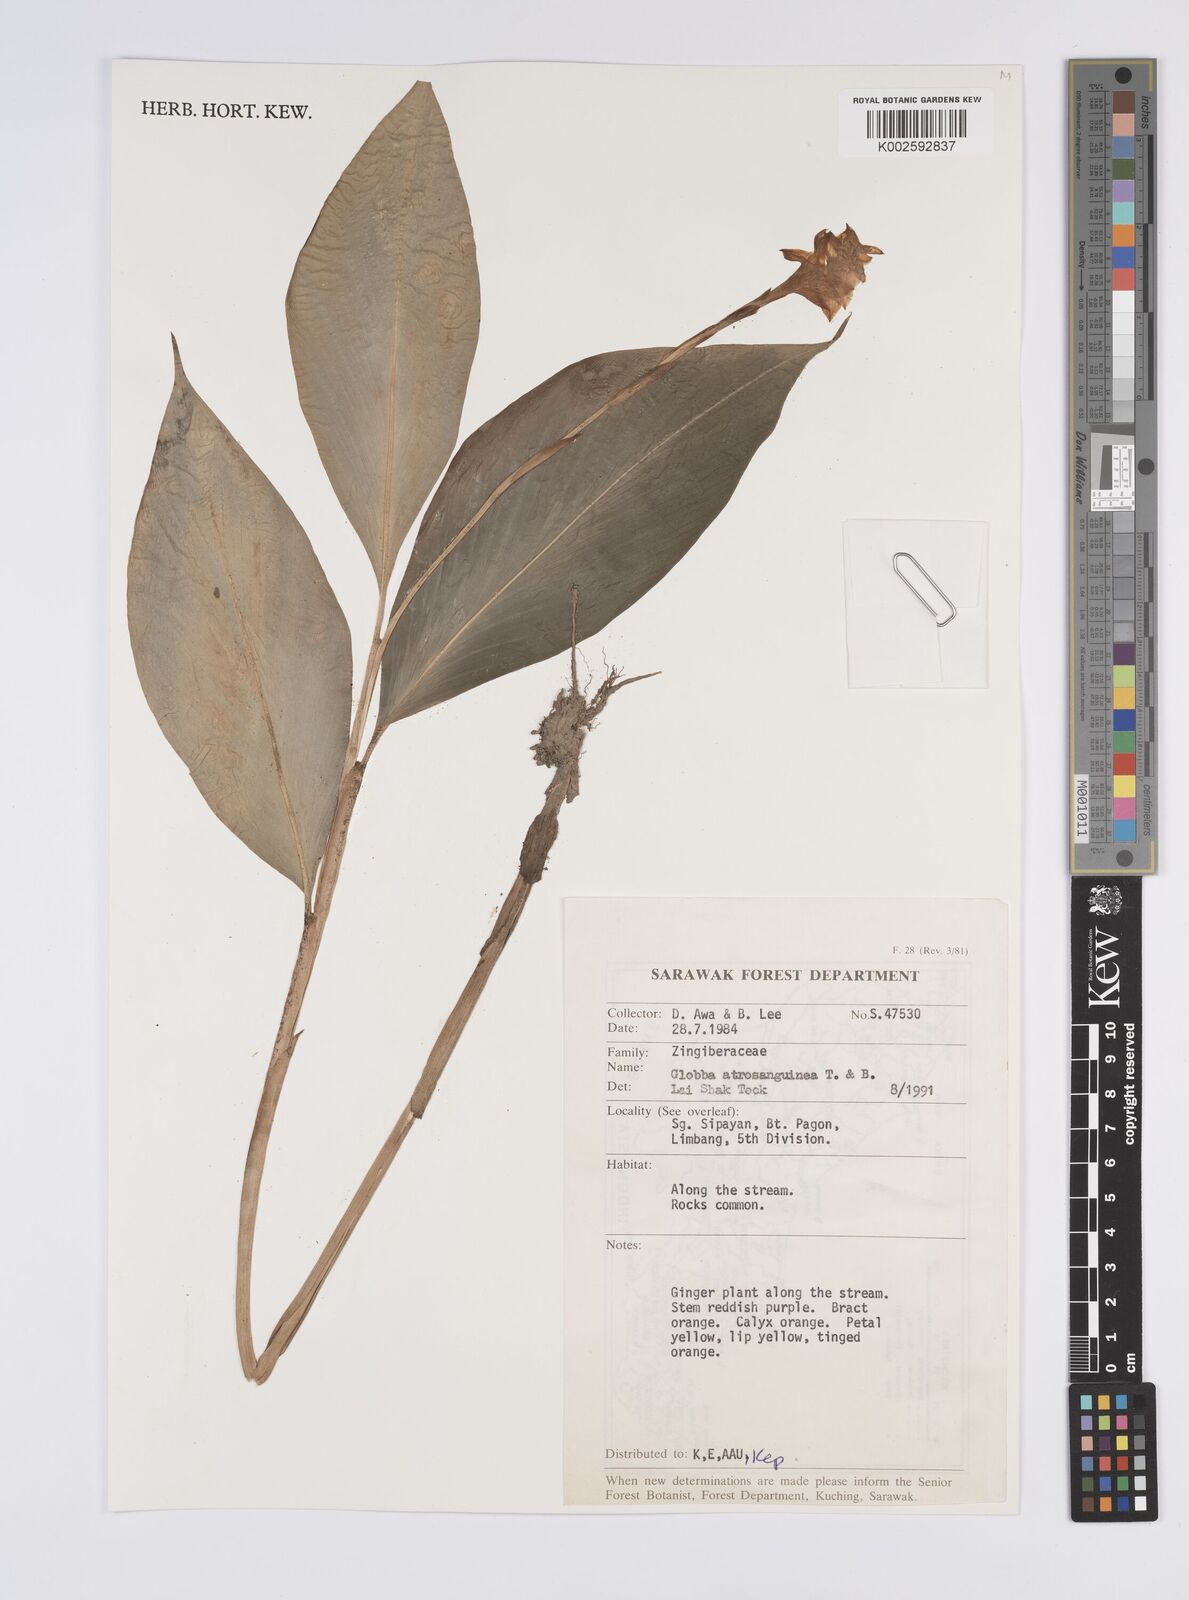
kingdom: Plantae
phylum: Tracheophyta
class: Liliopsida
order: Zingiberales
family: Zingiberaceae
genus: Globba
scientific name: Globba atrosanguinea
